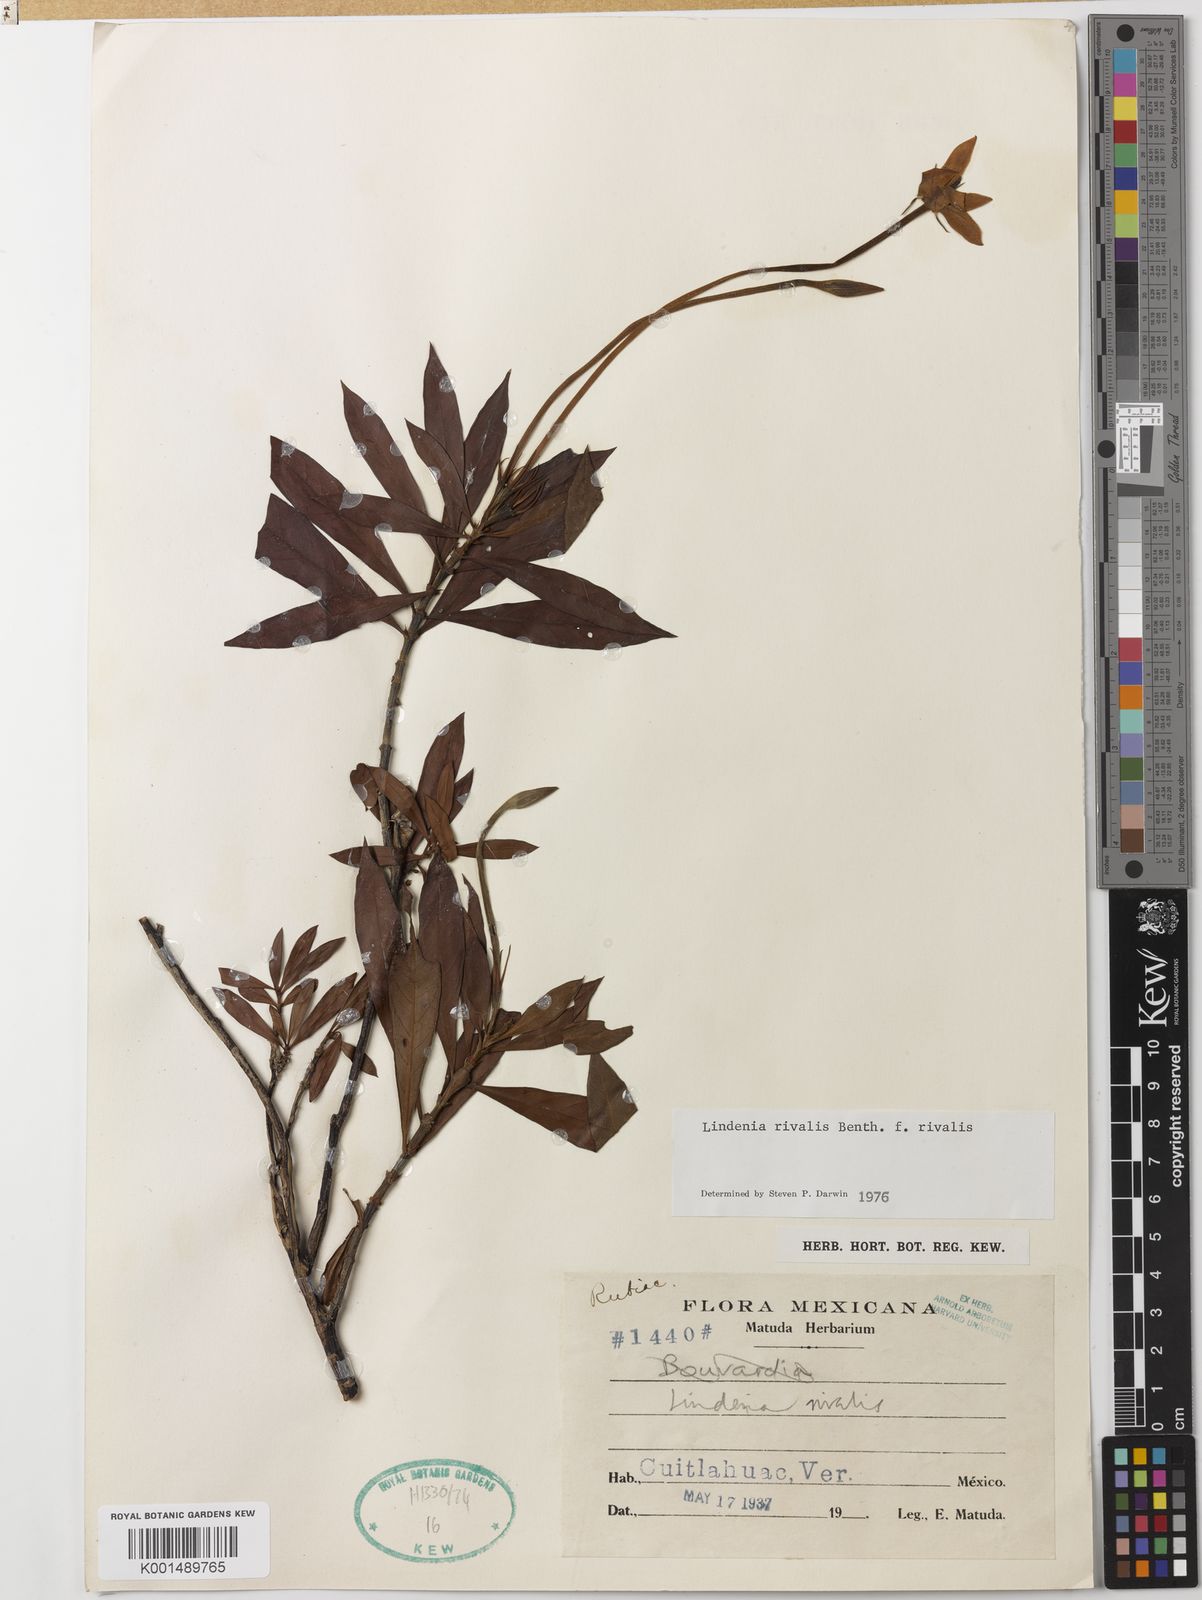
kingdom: Plantae
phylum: Tracheophyta
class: Magnoliopsida
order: Gentianales
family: Rubiaceae
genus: Augusta
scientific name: Augusta rivalis
